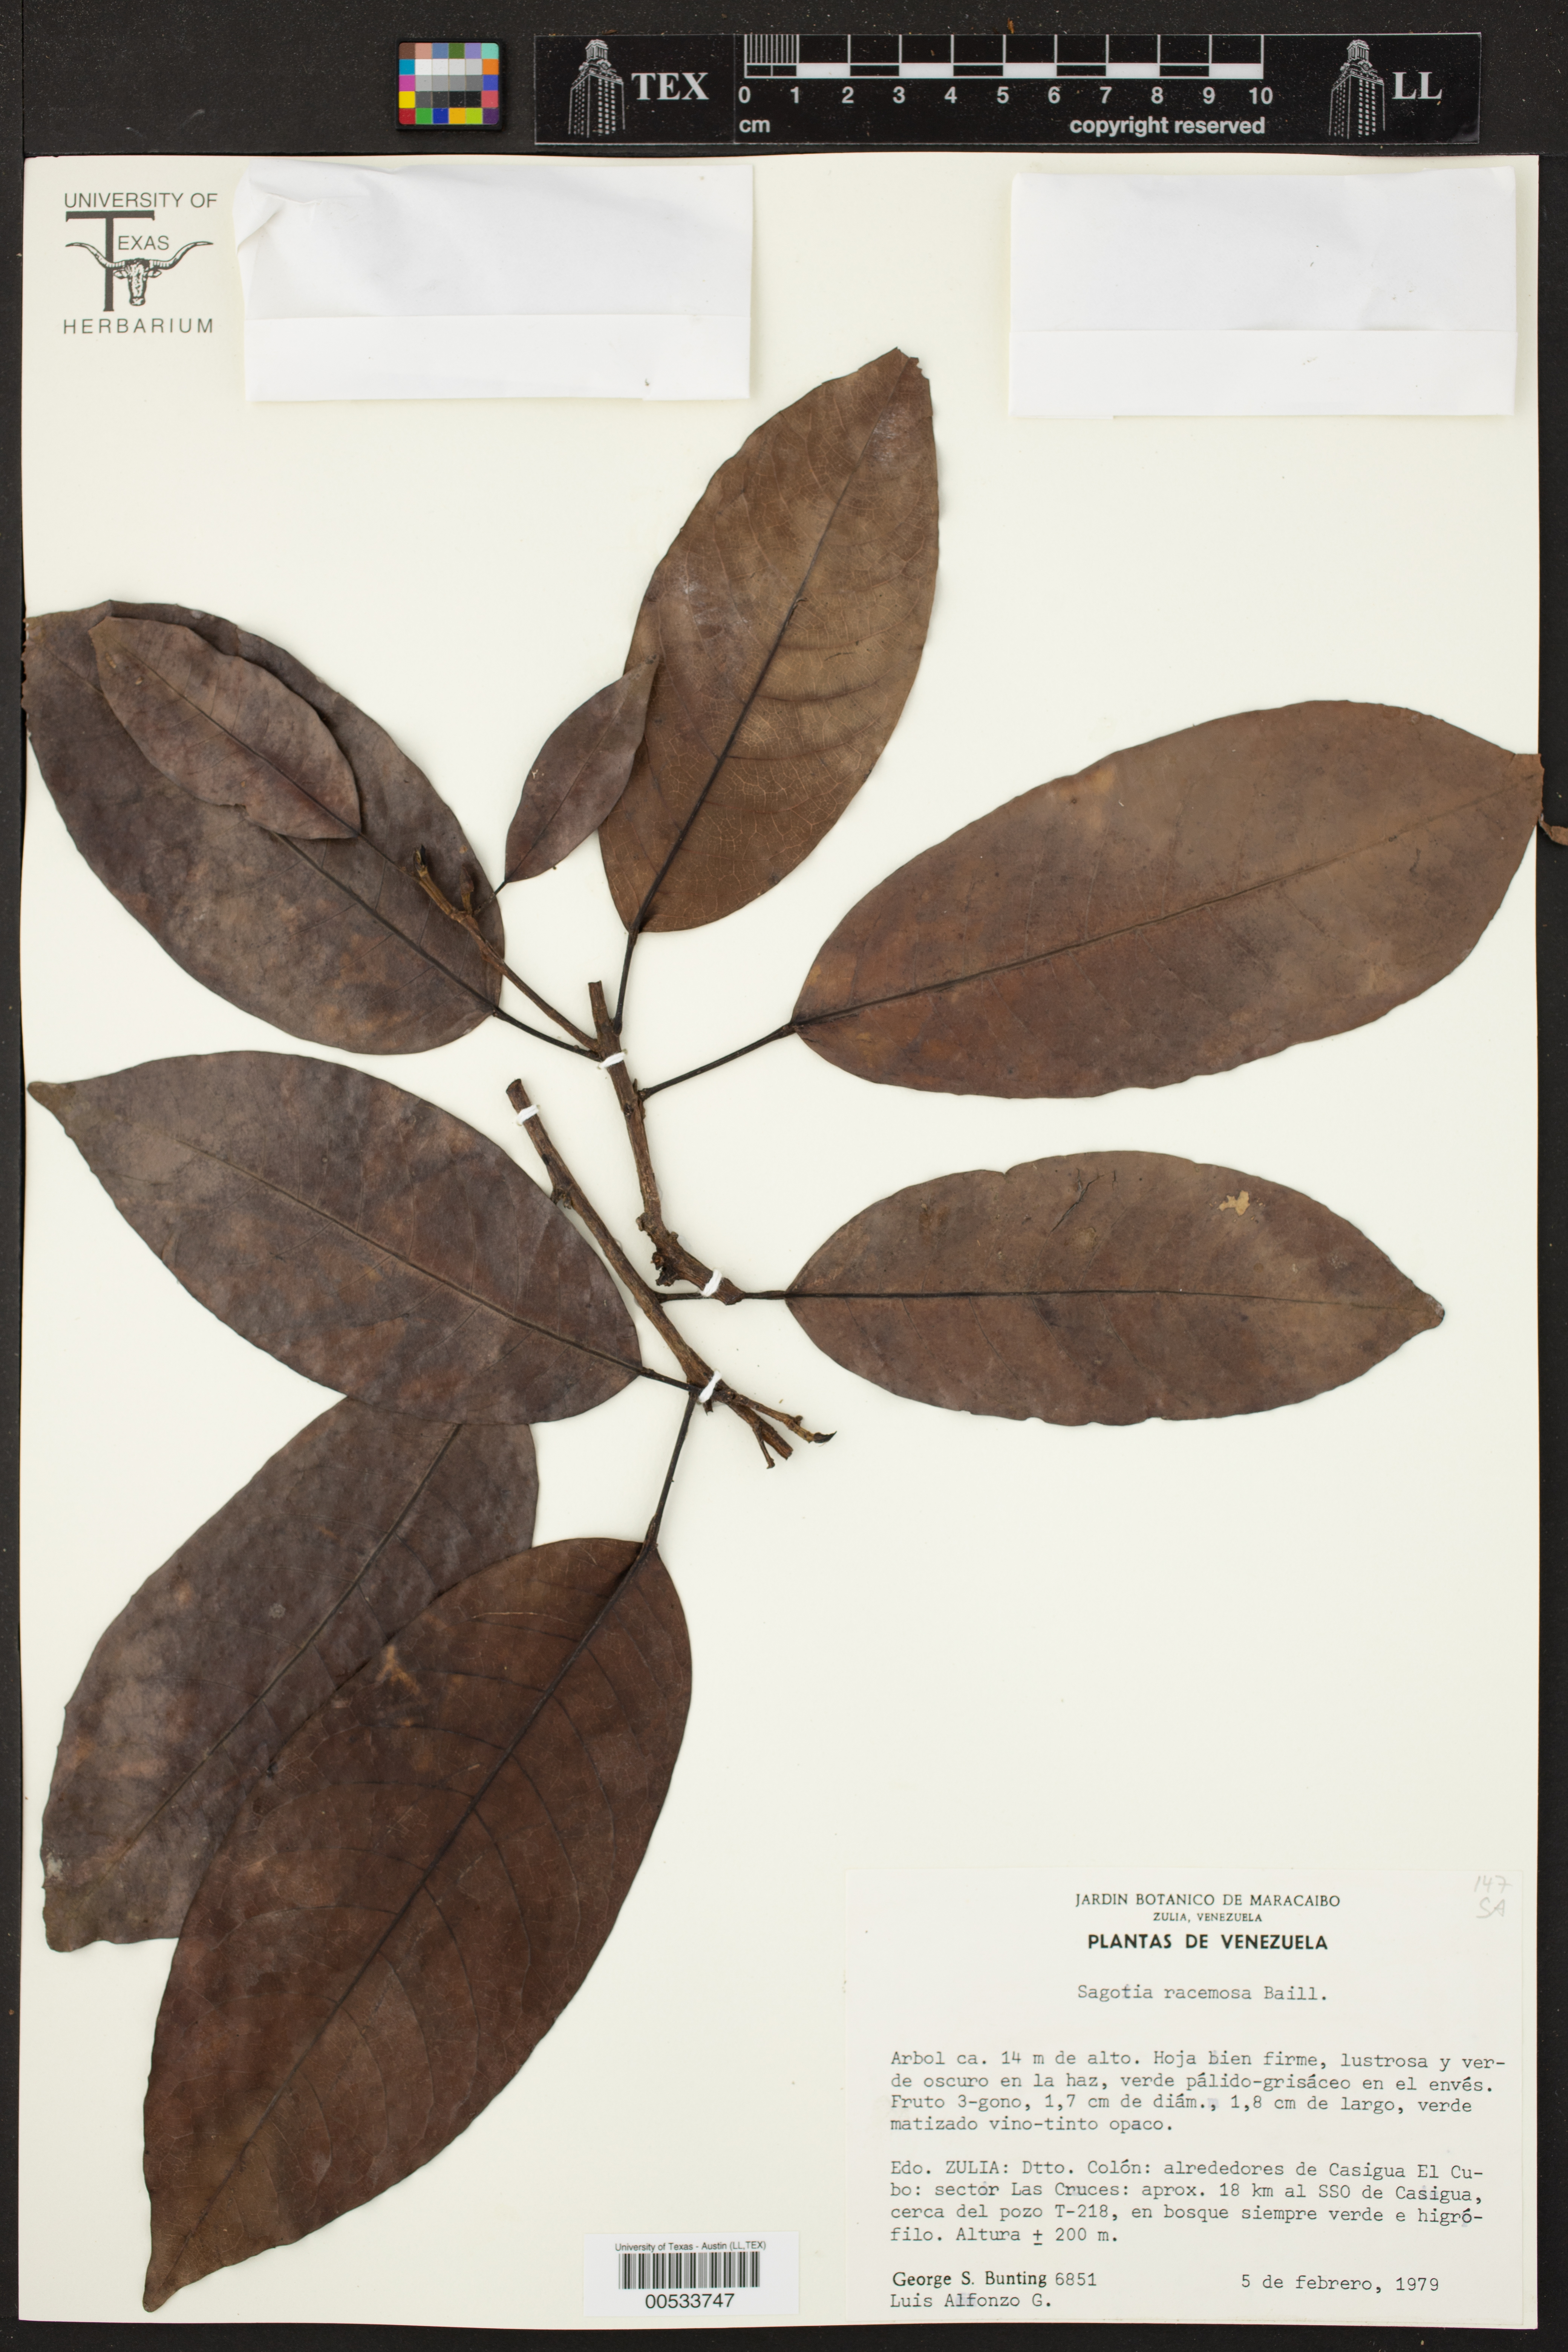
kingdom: Plantae
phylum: Tracheophyta
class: Magnoliopsida
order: Malpighiales
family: Euphorbiaceae
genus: Sagotia
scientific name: Sagotia racemosa
